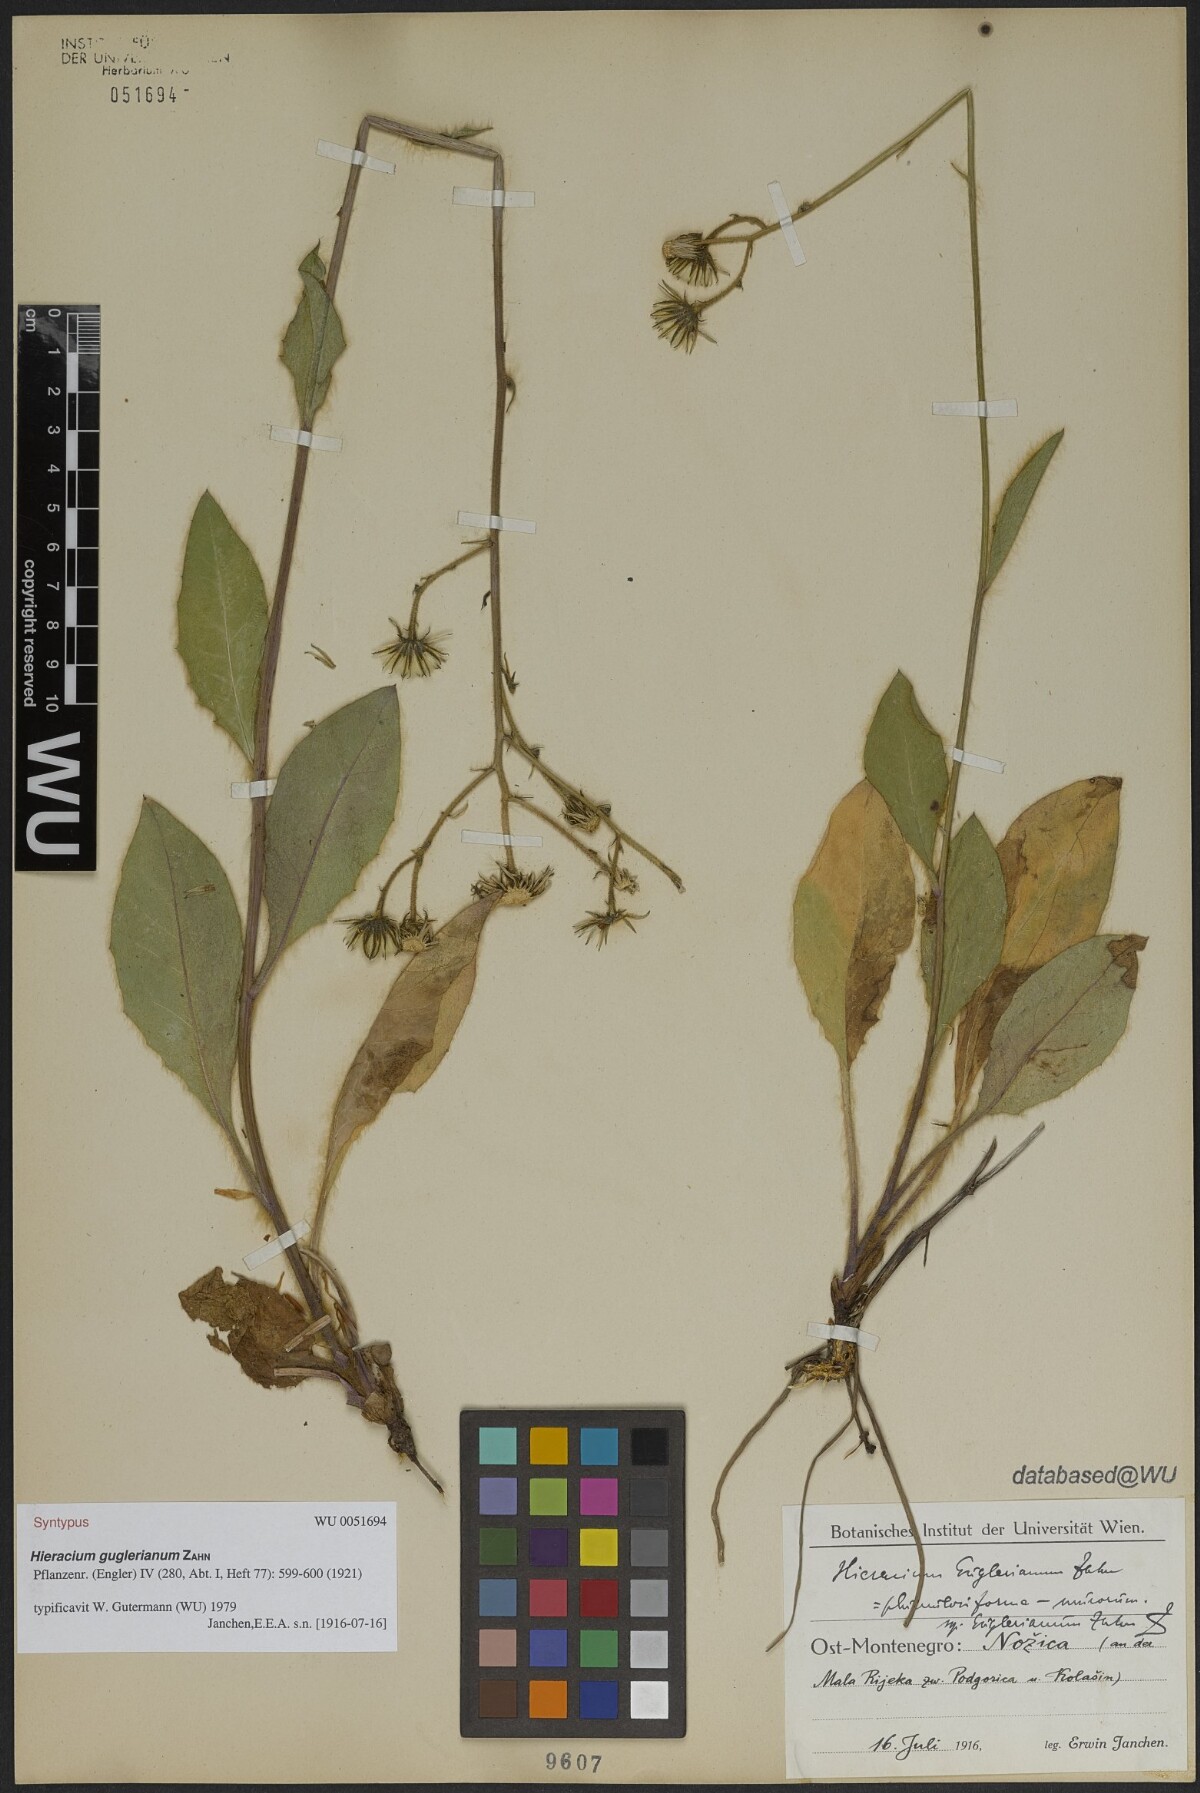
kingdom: Plantae
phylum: Tracheophyta
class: Magnoliopsida
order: Asterales
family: Asteraceae
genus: Hieracium
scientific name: Hieracium guglerianum
